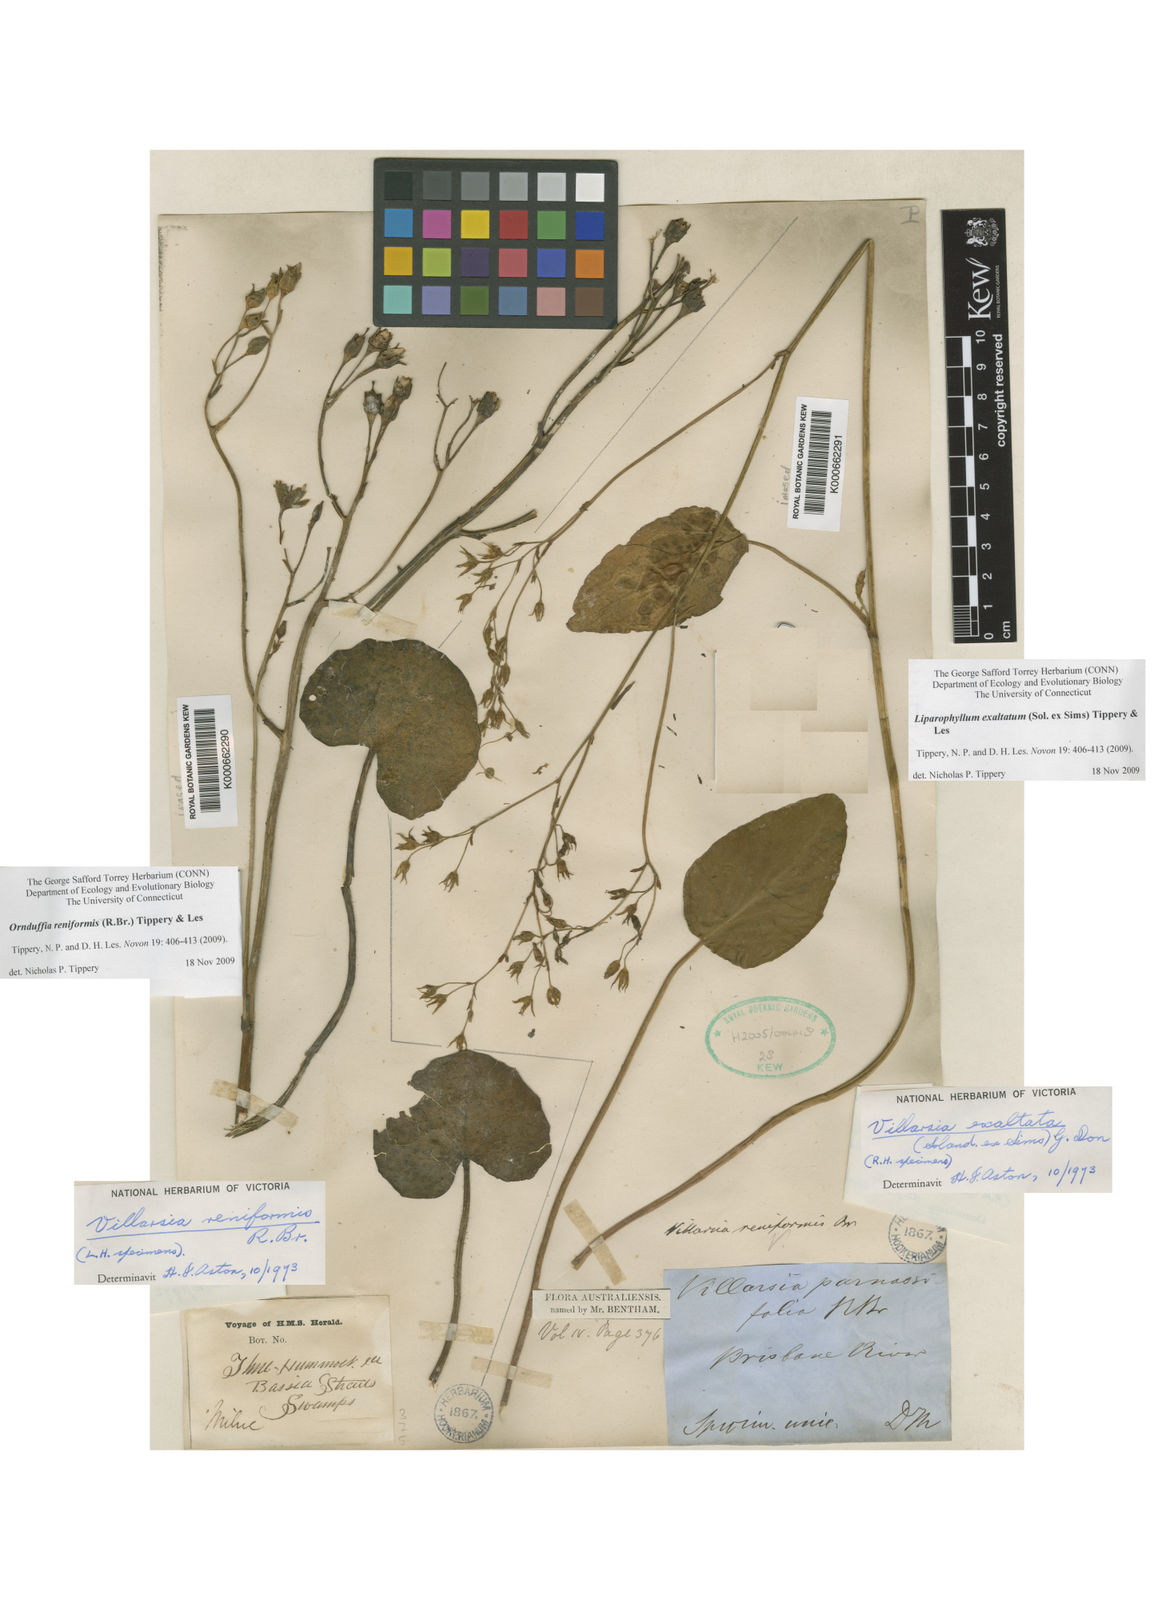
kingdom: Plantae
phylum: Tracheophyta
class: Magnoliopsida
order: Asterales
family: Menyanthaceae
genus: Ornduffia
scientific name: Ornduffia reniformis
